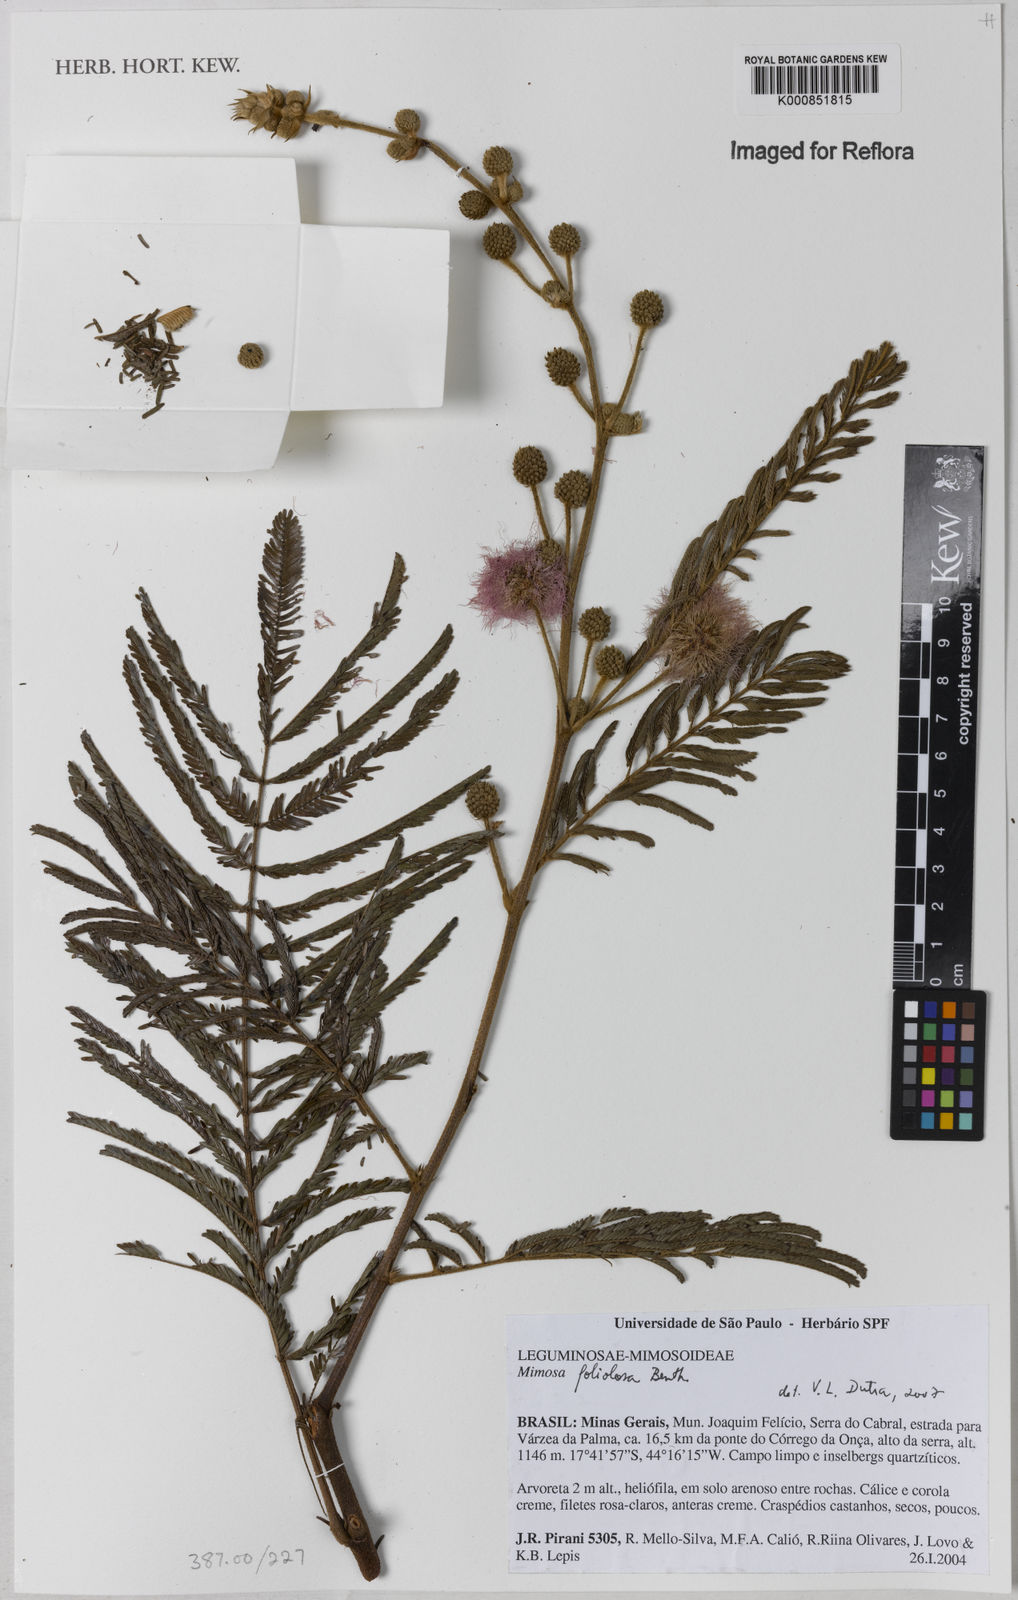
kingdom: Plantae
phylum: Tracheophyta
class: Magnoliopsida
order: Fabales
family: Fabaceae
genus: Mimosa
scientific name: Mimosa foliolosa
